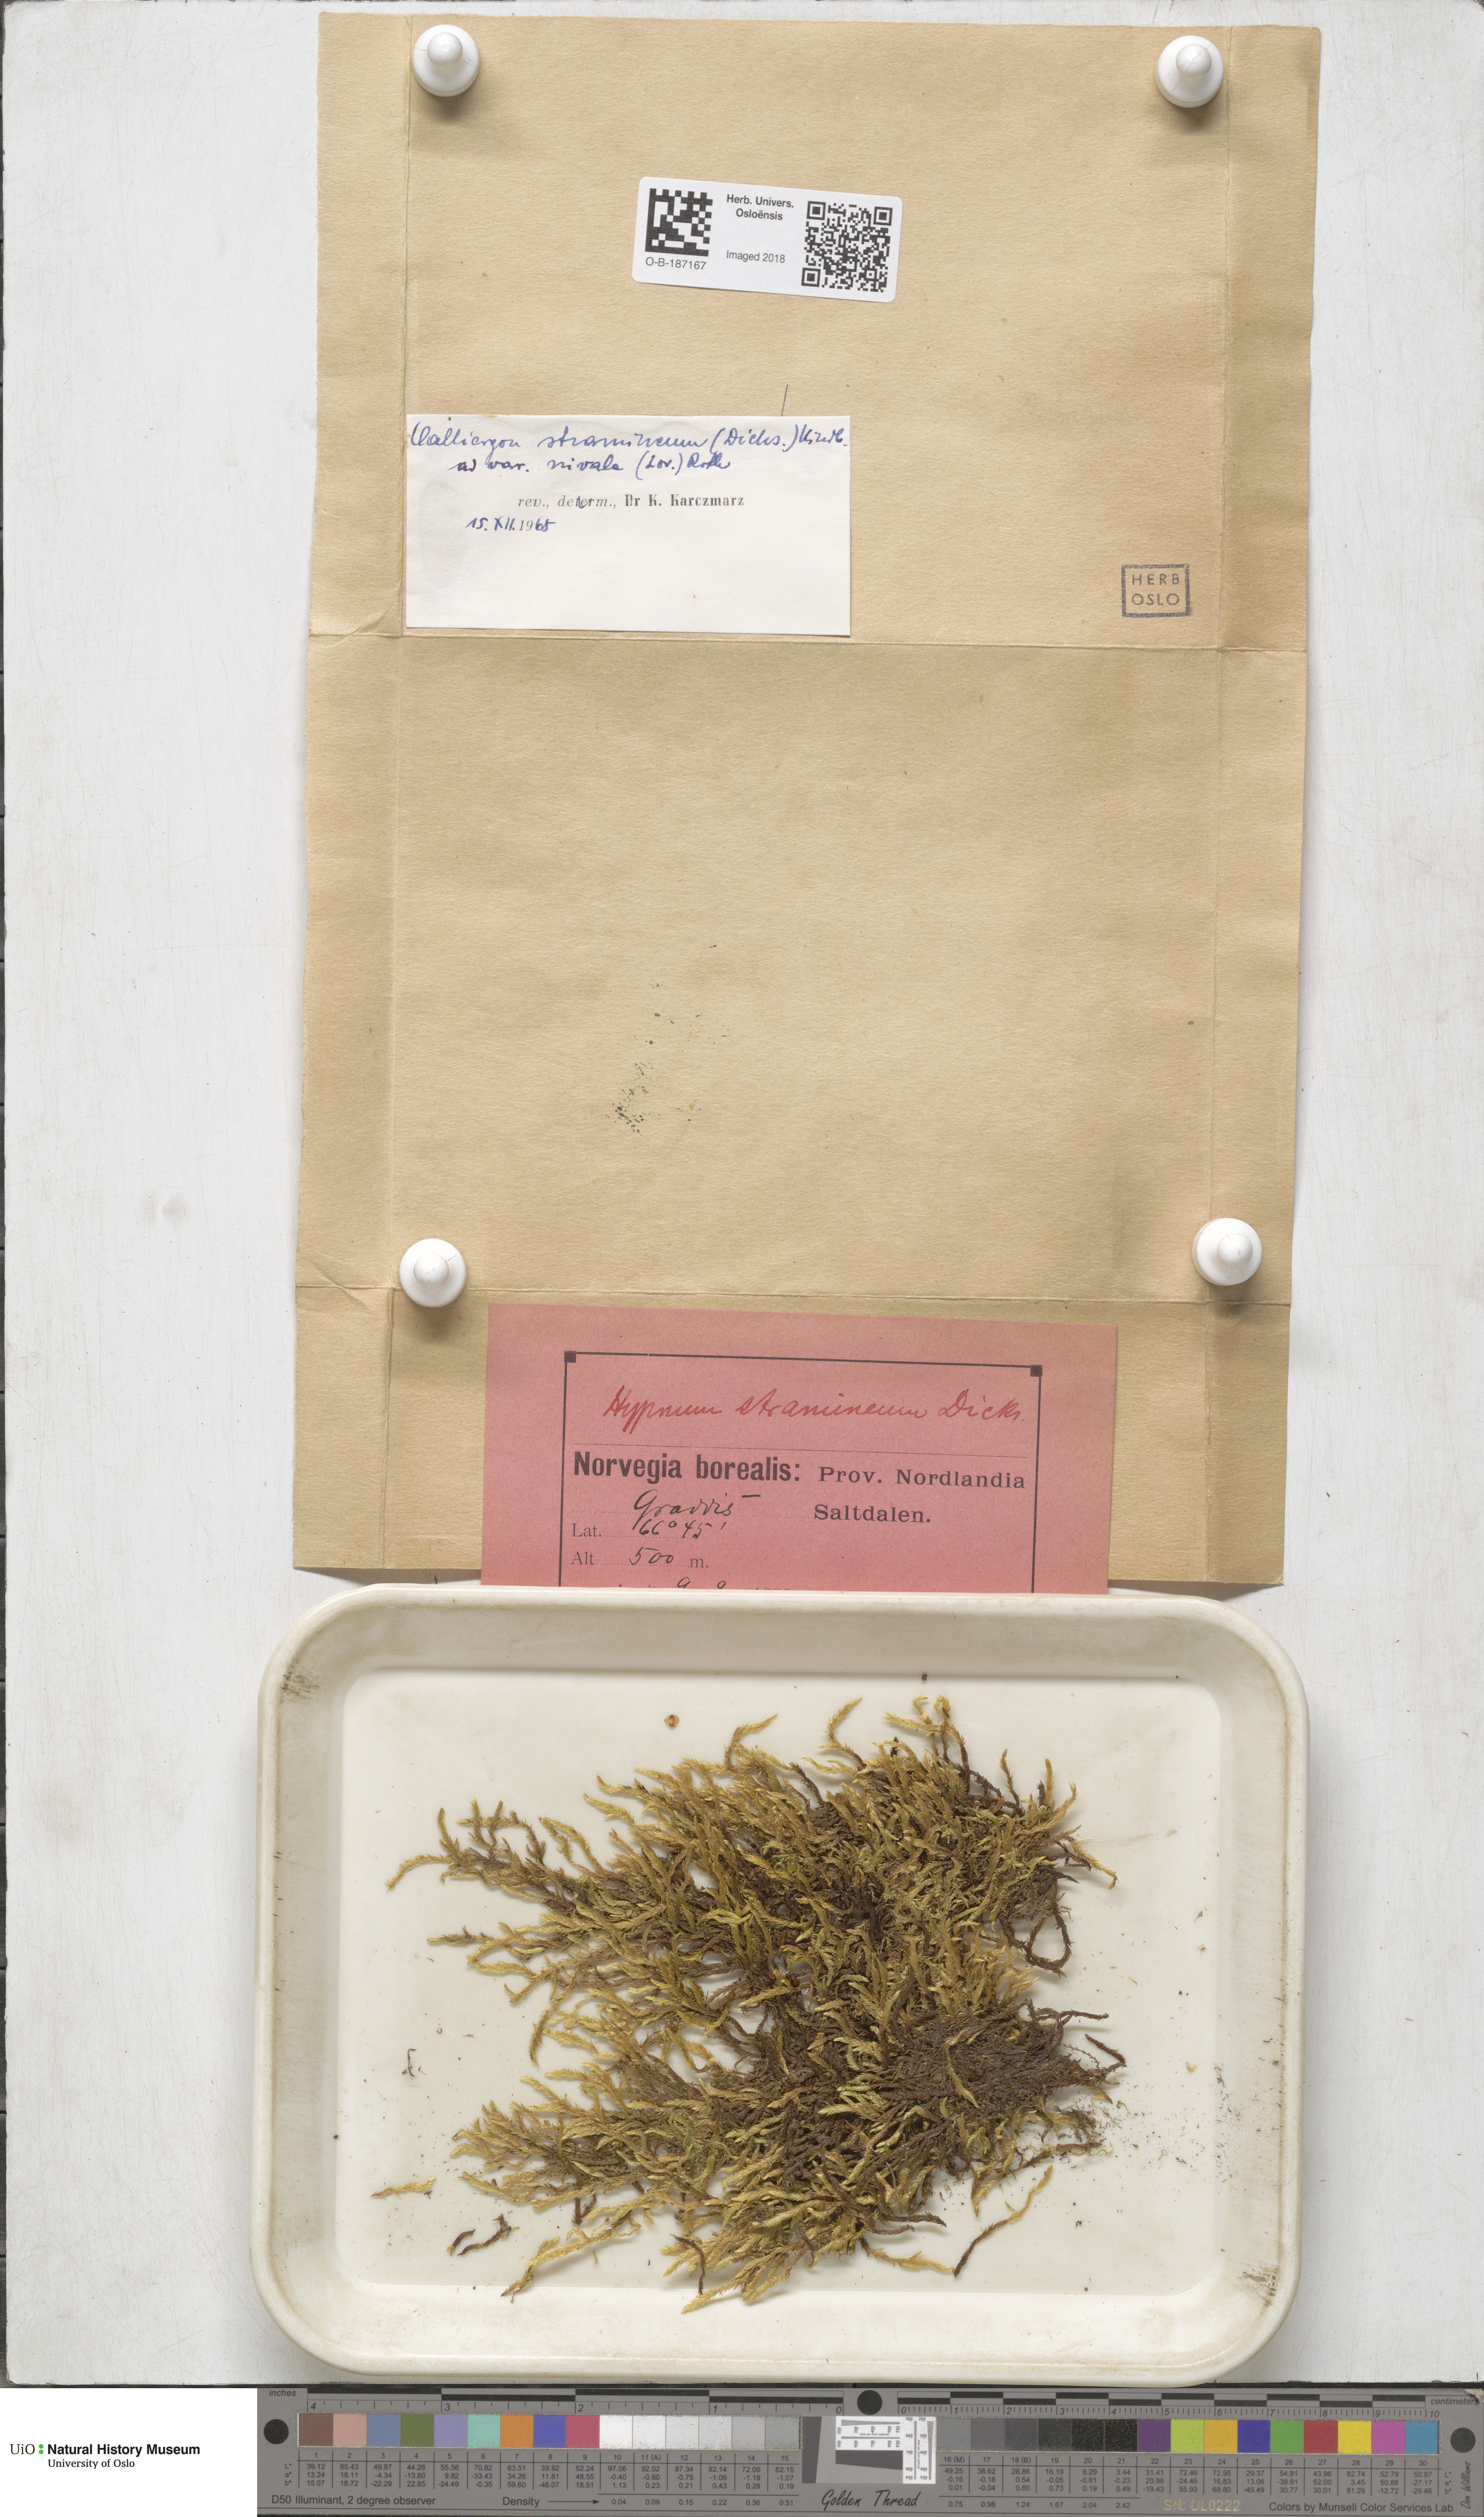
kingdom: Plantae
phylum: Bryophyta
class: Bryopsida
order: Hypnales
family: Calliergonaceae
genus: Straminergon
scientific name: Straminergon stramineum
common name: Straw moss
